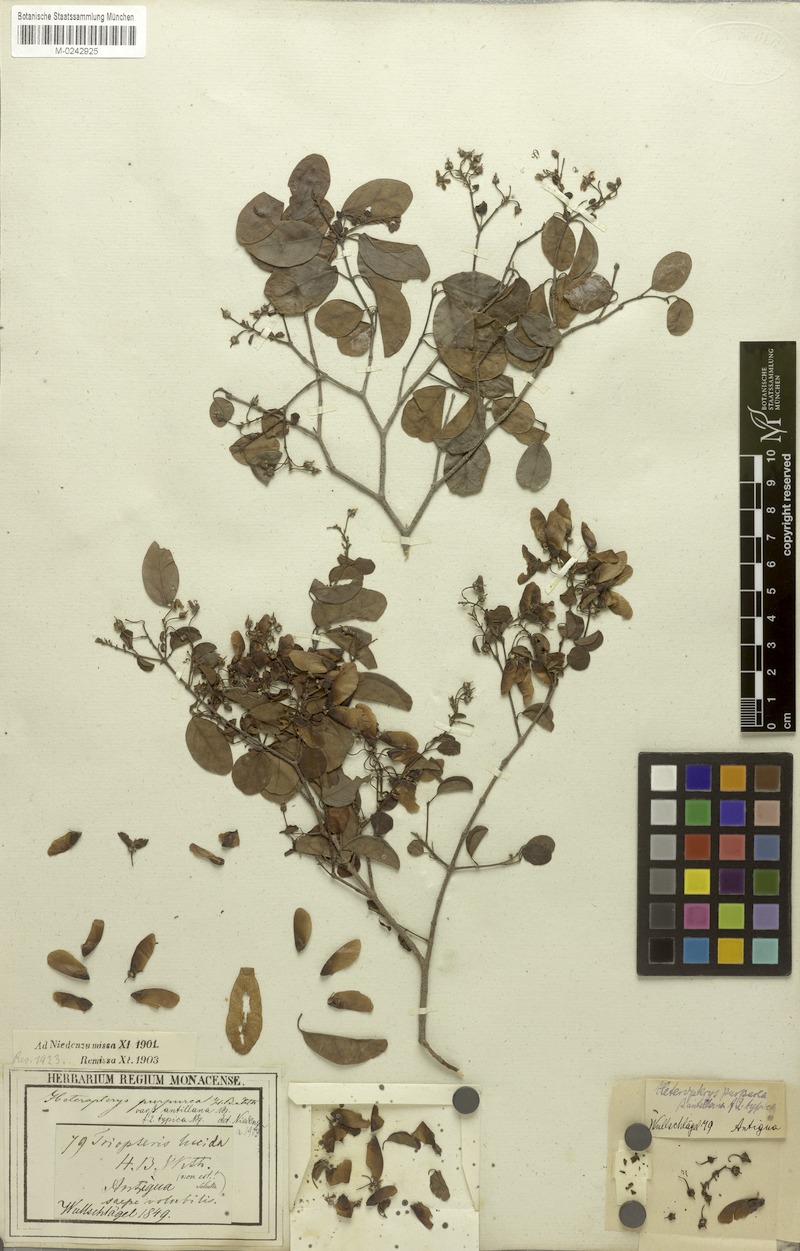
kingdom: Plantae
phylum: Tracheophyta
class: Magnoliopsida
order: Malpighiales
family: Malpighiaceae
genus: Heteropterys
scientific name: Heteropterys purpurea
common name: Bull withe
